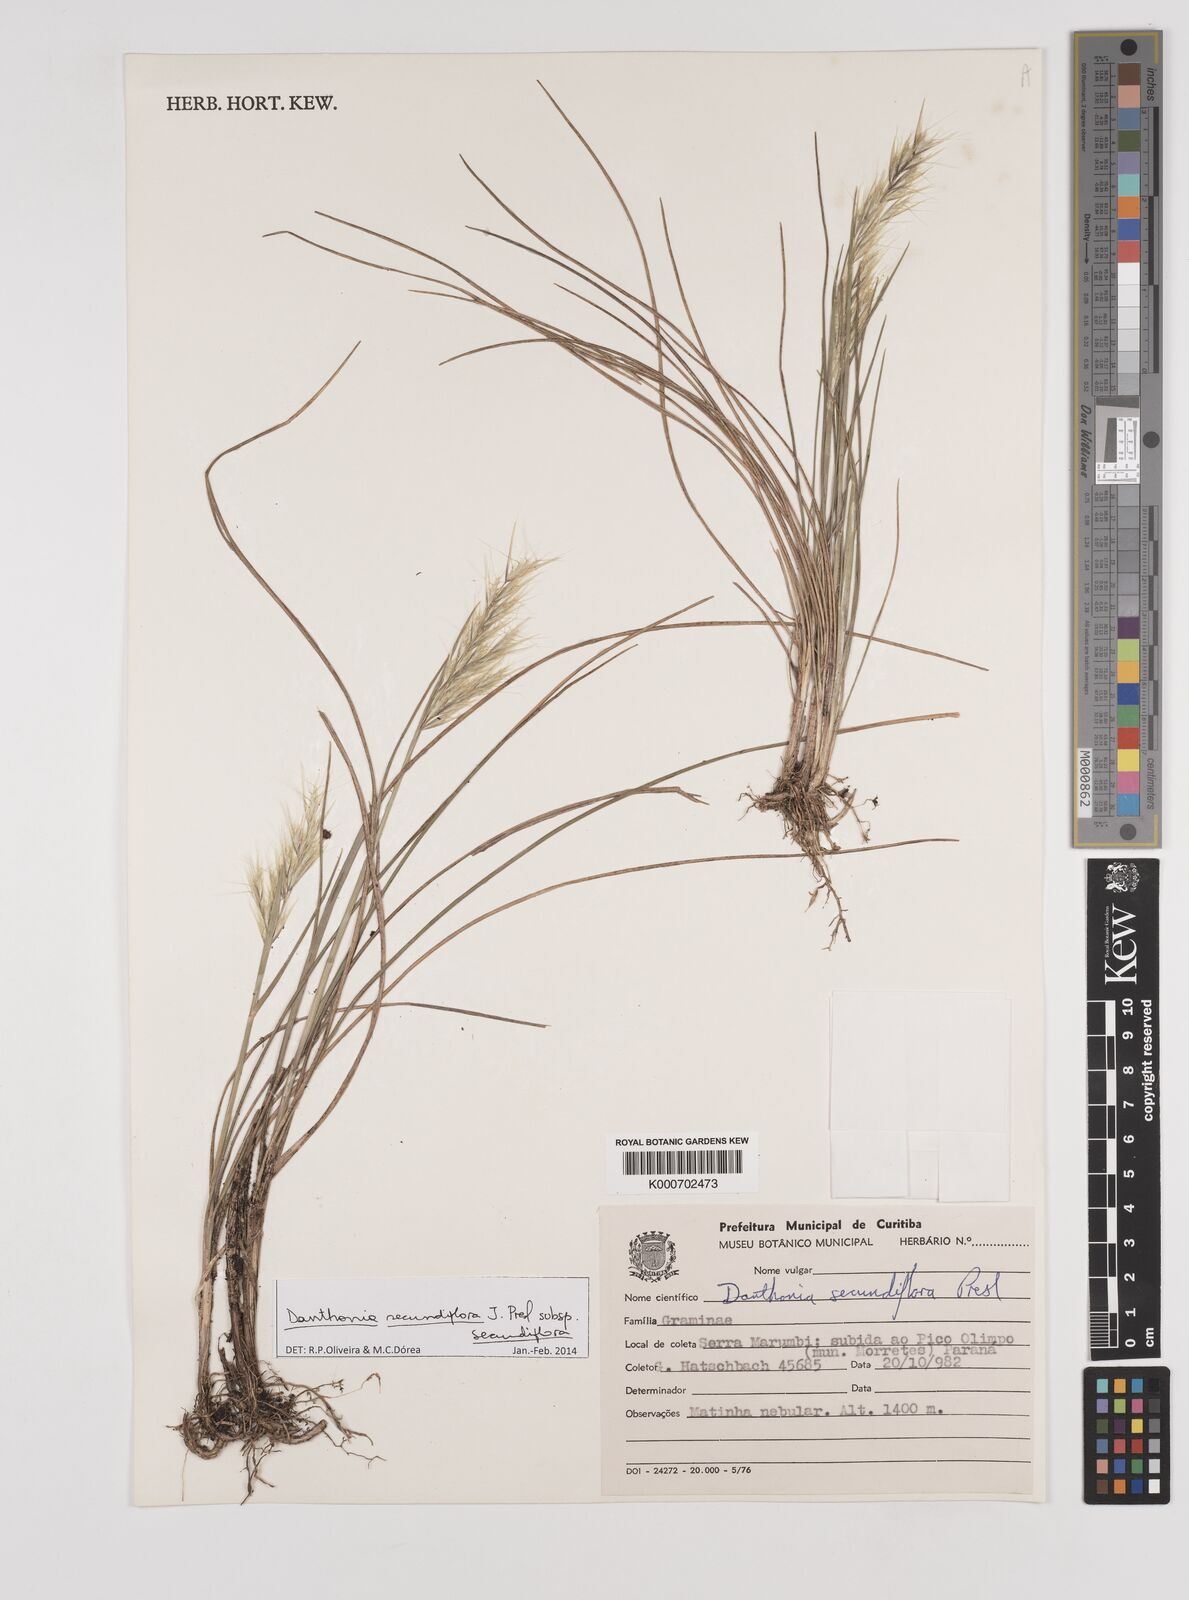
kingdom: Plantae
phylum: Tracheophyta
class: Liliopsida
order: Poales
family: Poaceae
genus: Danthonia
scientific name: Danthonia secundiflora
